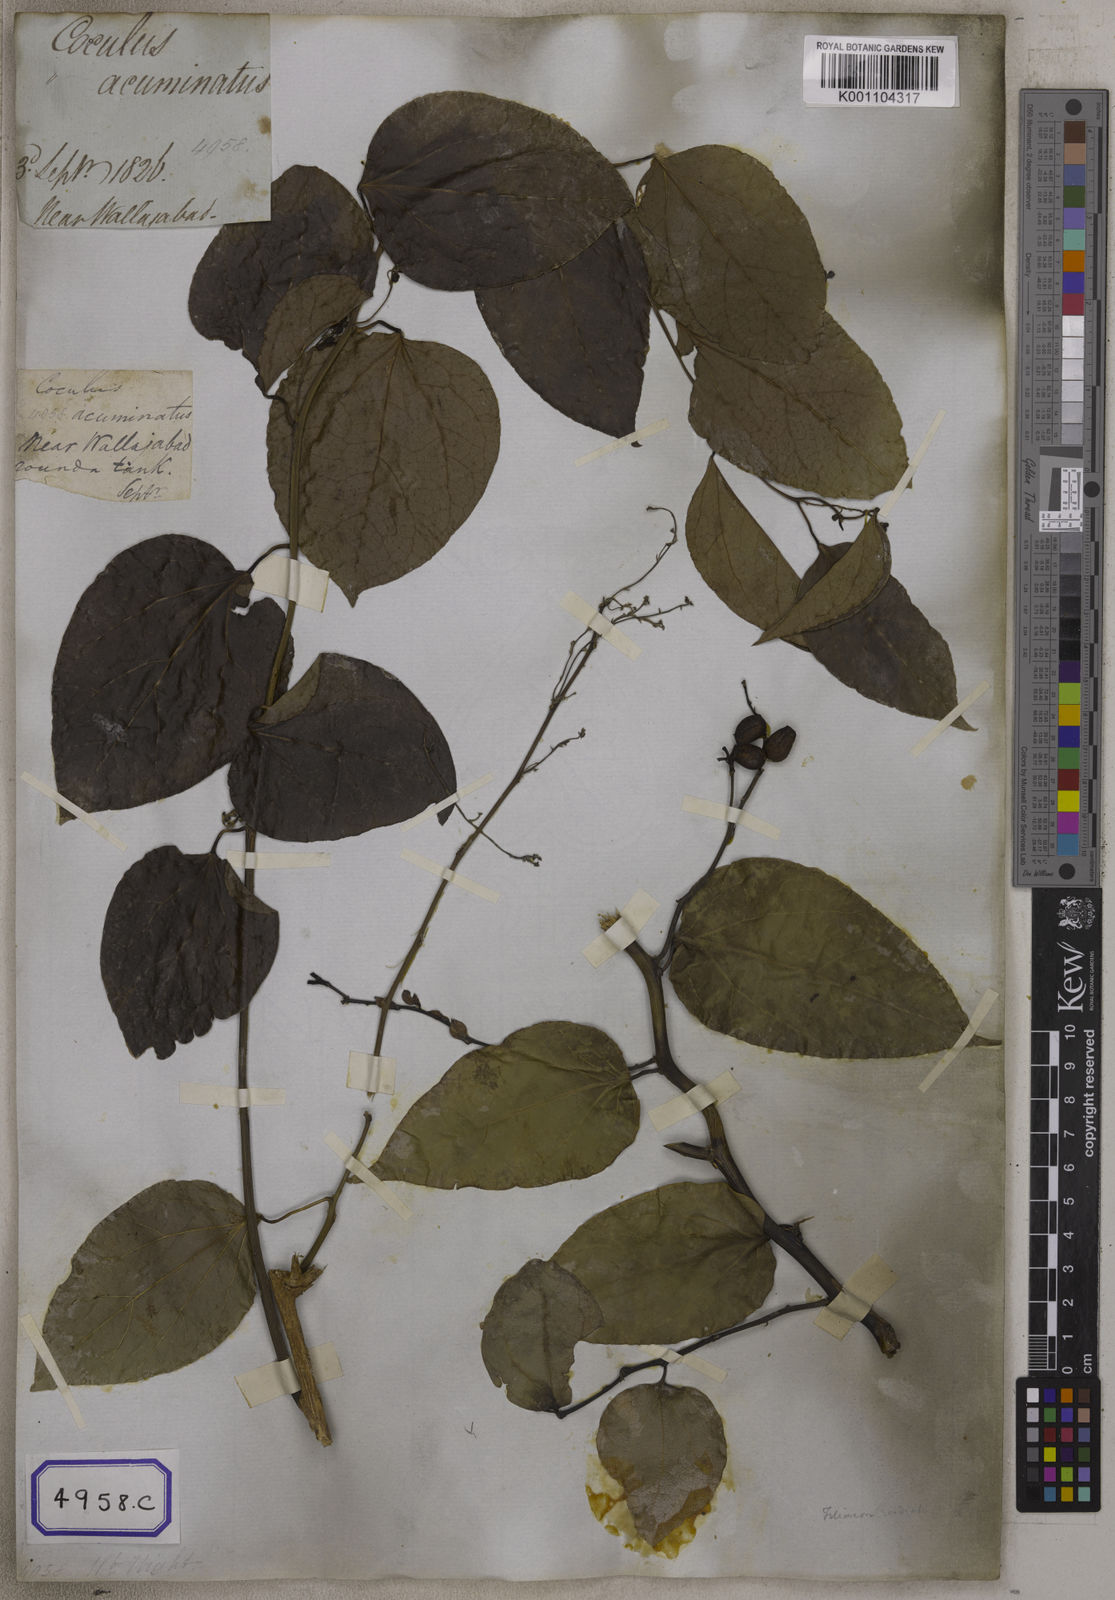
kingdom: Plantae
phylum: Tracheophyta
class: Magnoliopsida
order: Ranunculales
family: Menispermaceae
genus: Cocculus
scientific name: Cocculus
